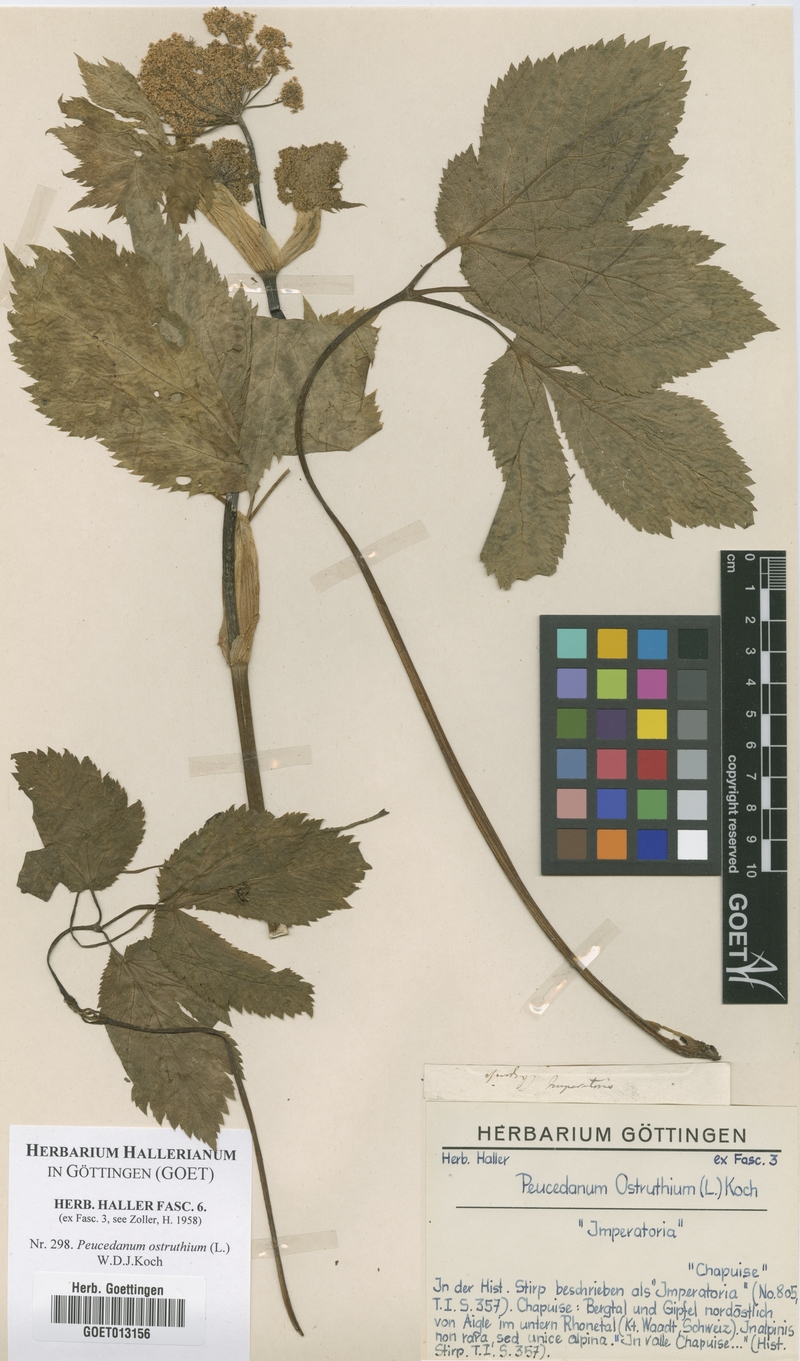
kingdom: Plantae
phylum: Tracheophyta
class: Magnoliopsida
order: Apiales
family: Apiaceae
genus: Imperatoria
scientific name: Imperatoria ostruthium
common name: Masterwort
